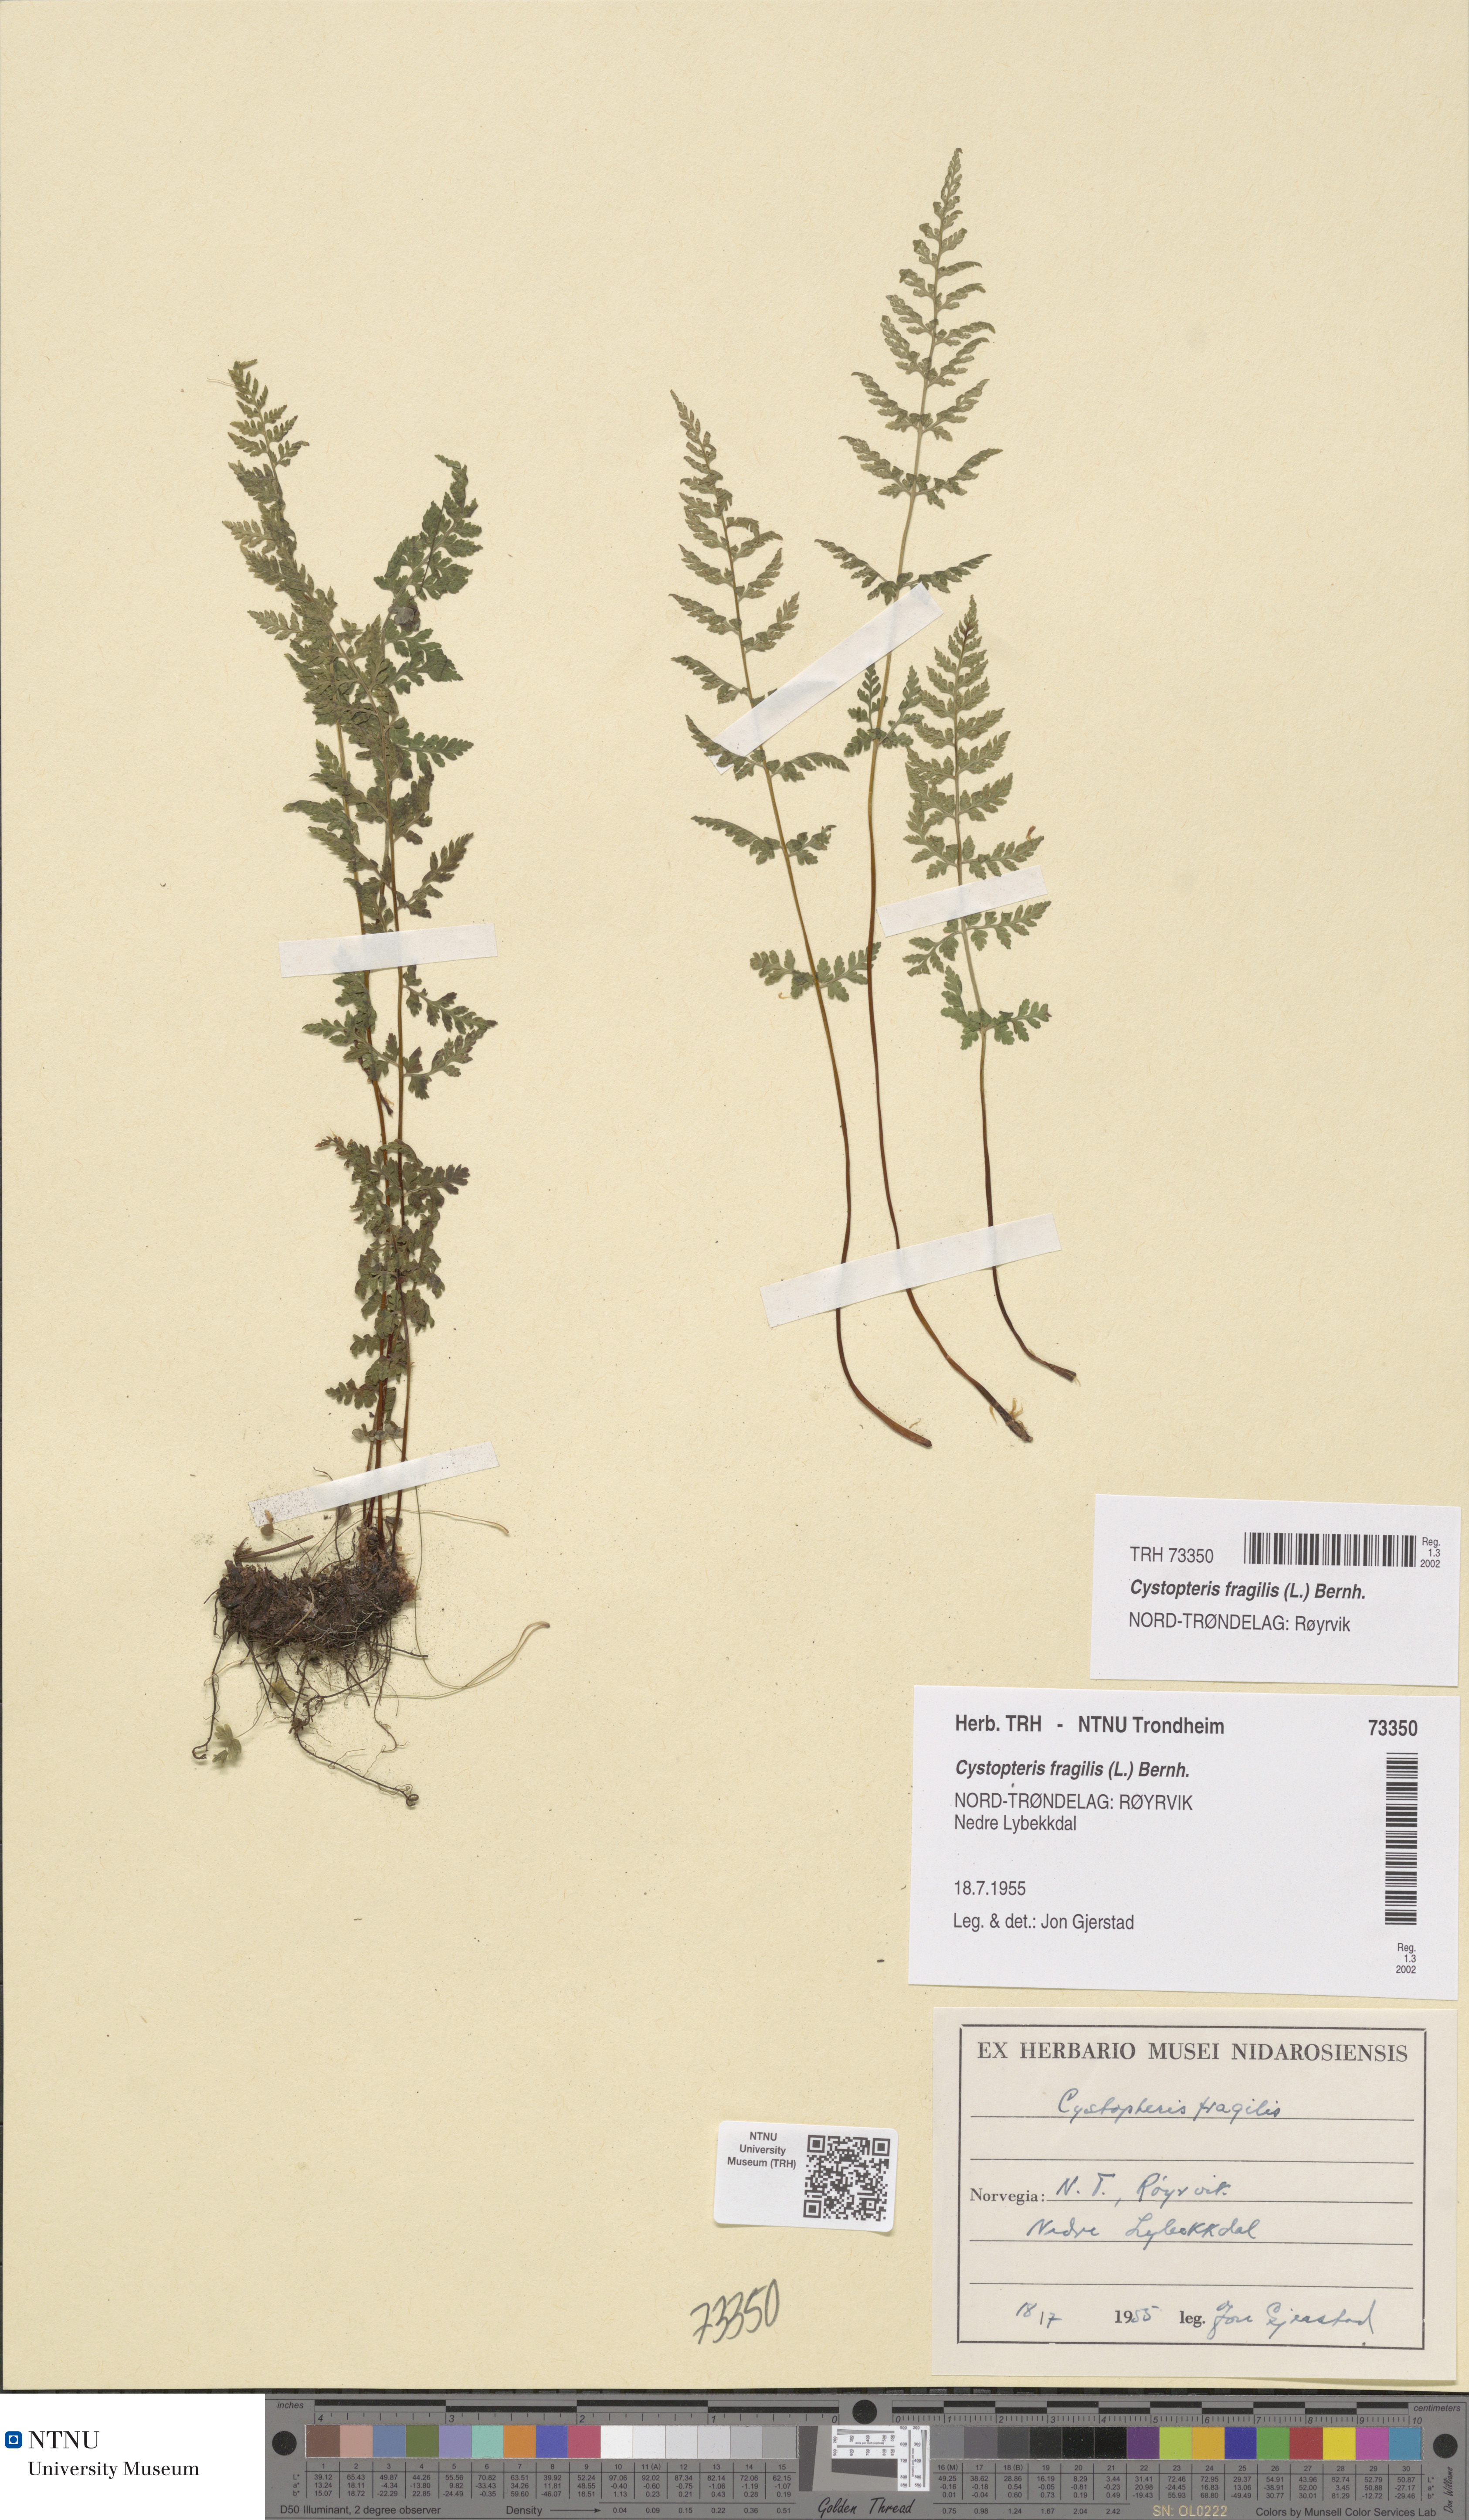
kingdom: Plantae
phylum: Tracheophyta
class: Polypodiopsida
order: Polypodiales
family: Cystopteridaceae
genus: Cystopteris
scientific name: Cystopteris fragilis
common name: Brittle bladder fern
